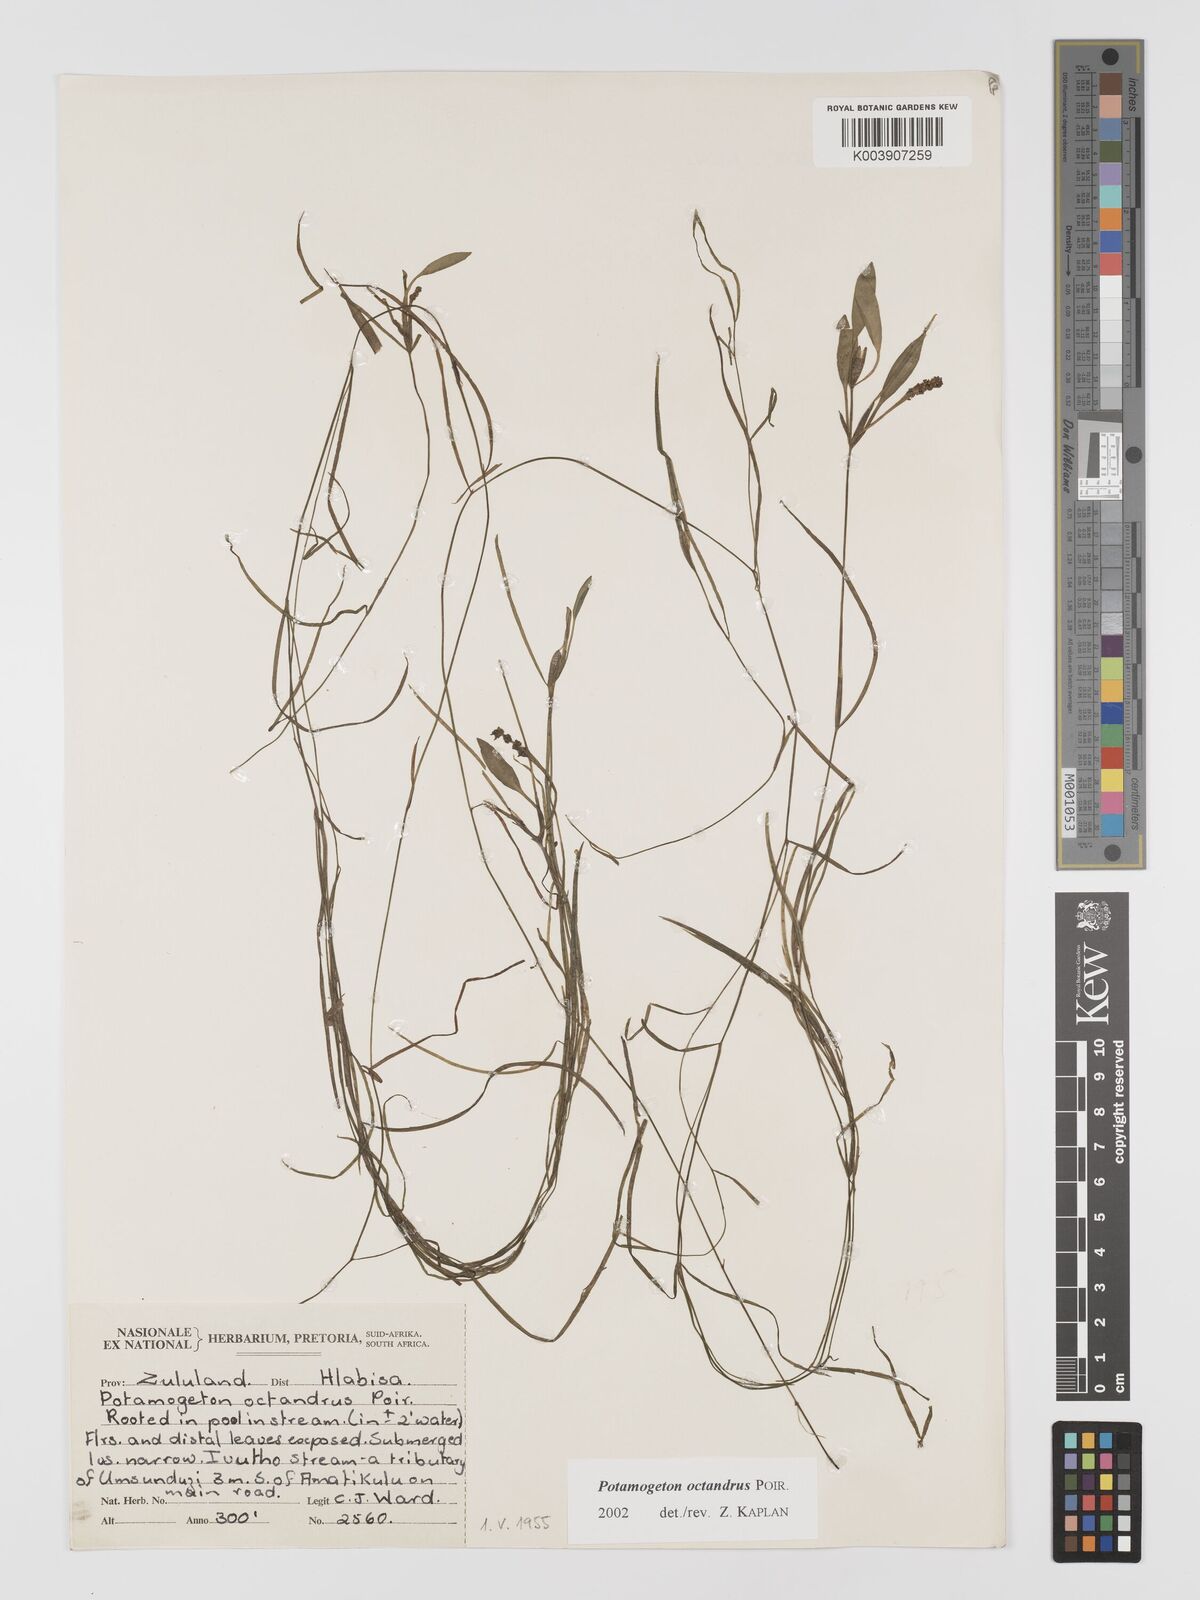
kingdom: Plantae
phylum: Tracheophyta
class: Liliopsida
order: Alismatales
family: Potamogetonaceae
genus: Potamogeton
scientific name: Potamogeton tenuicaulis
